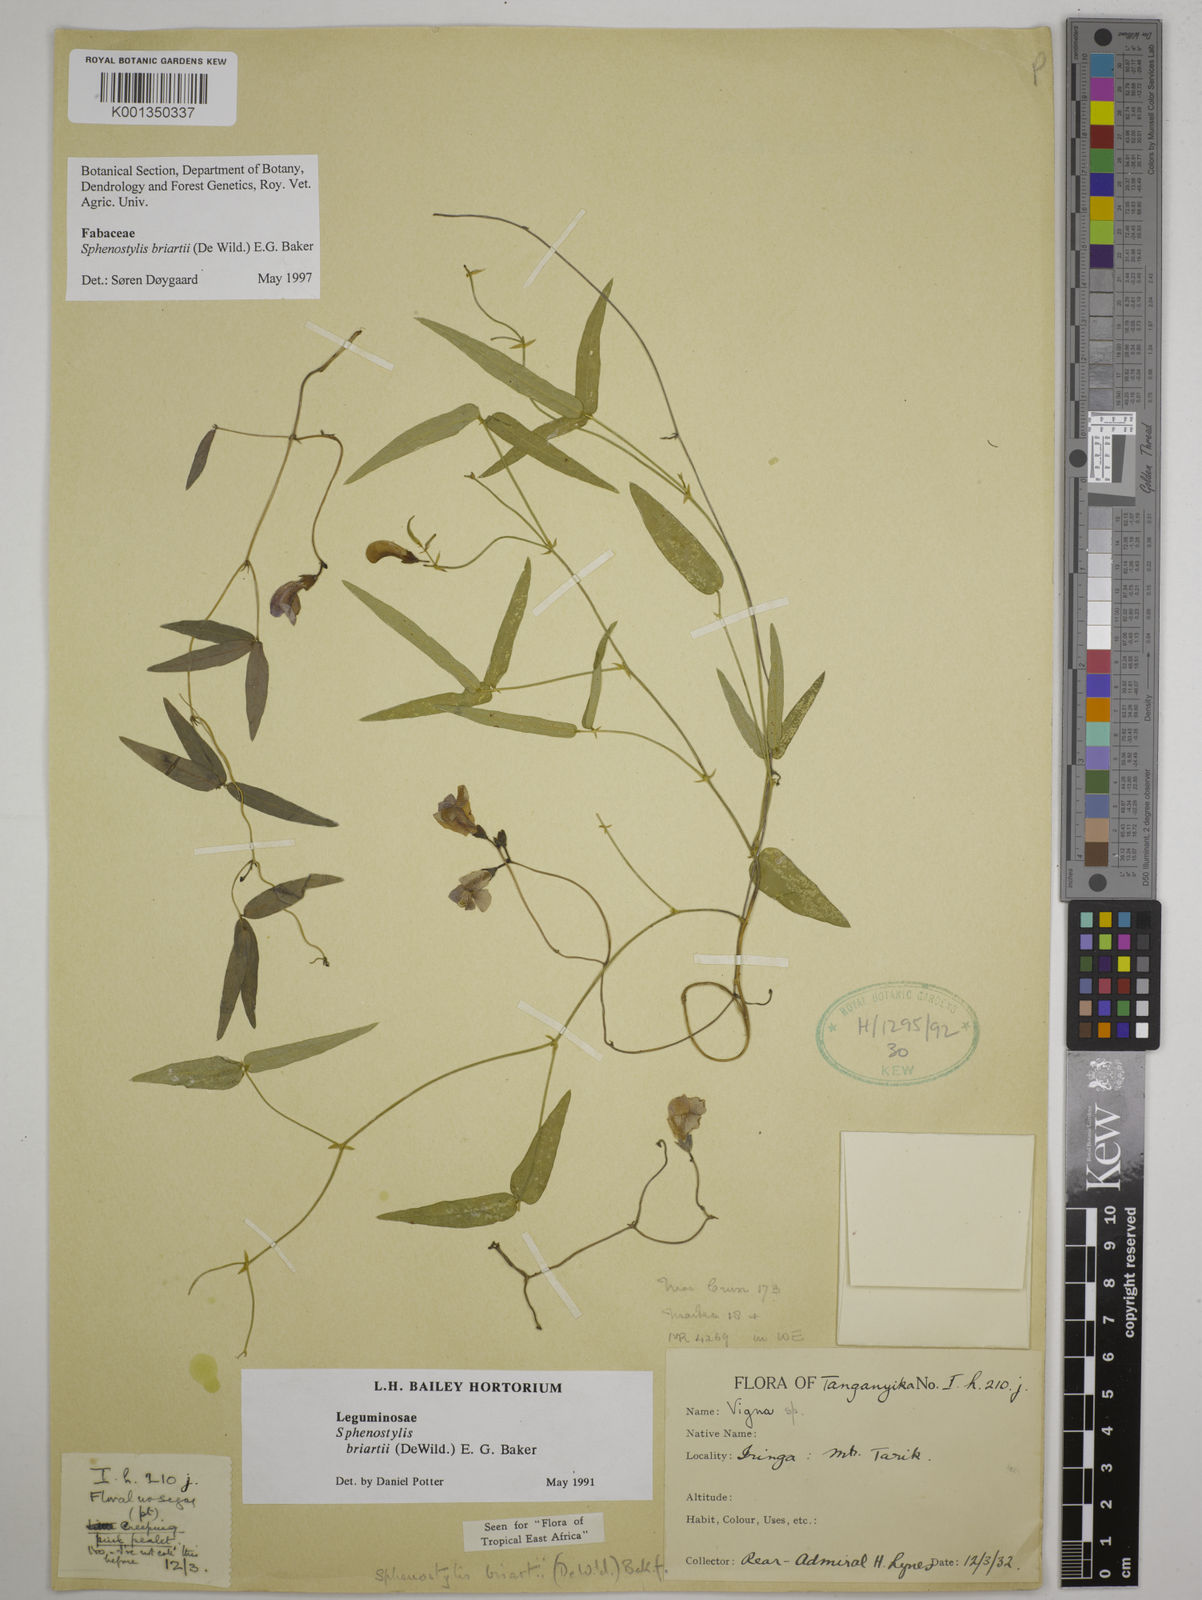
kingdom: Plantae
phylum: Tracheophyta
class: Magnoliopsida
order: Fabales
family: Fabaceae
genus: Sphenostylis
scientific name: Sphenostylis briartii
